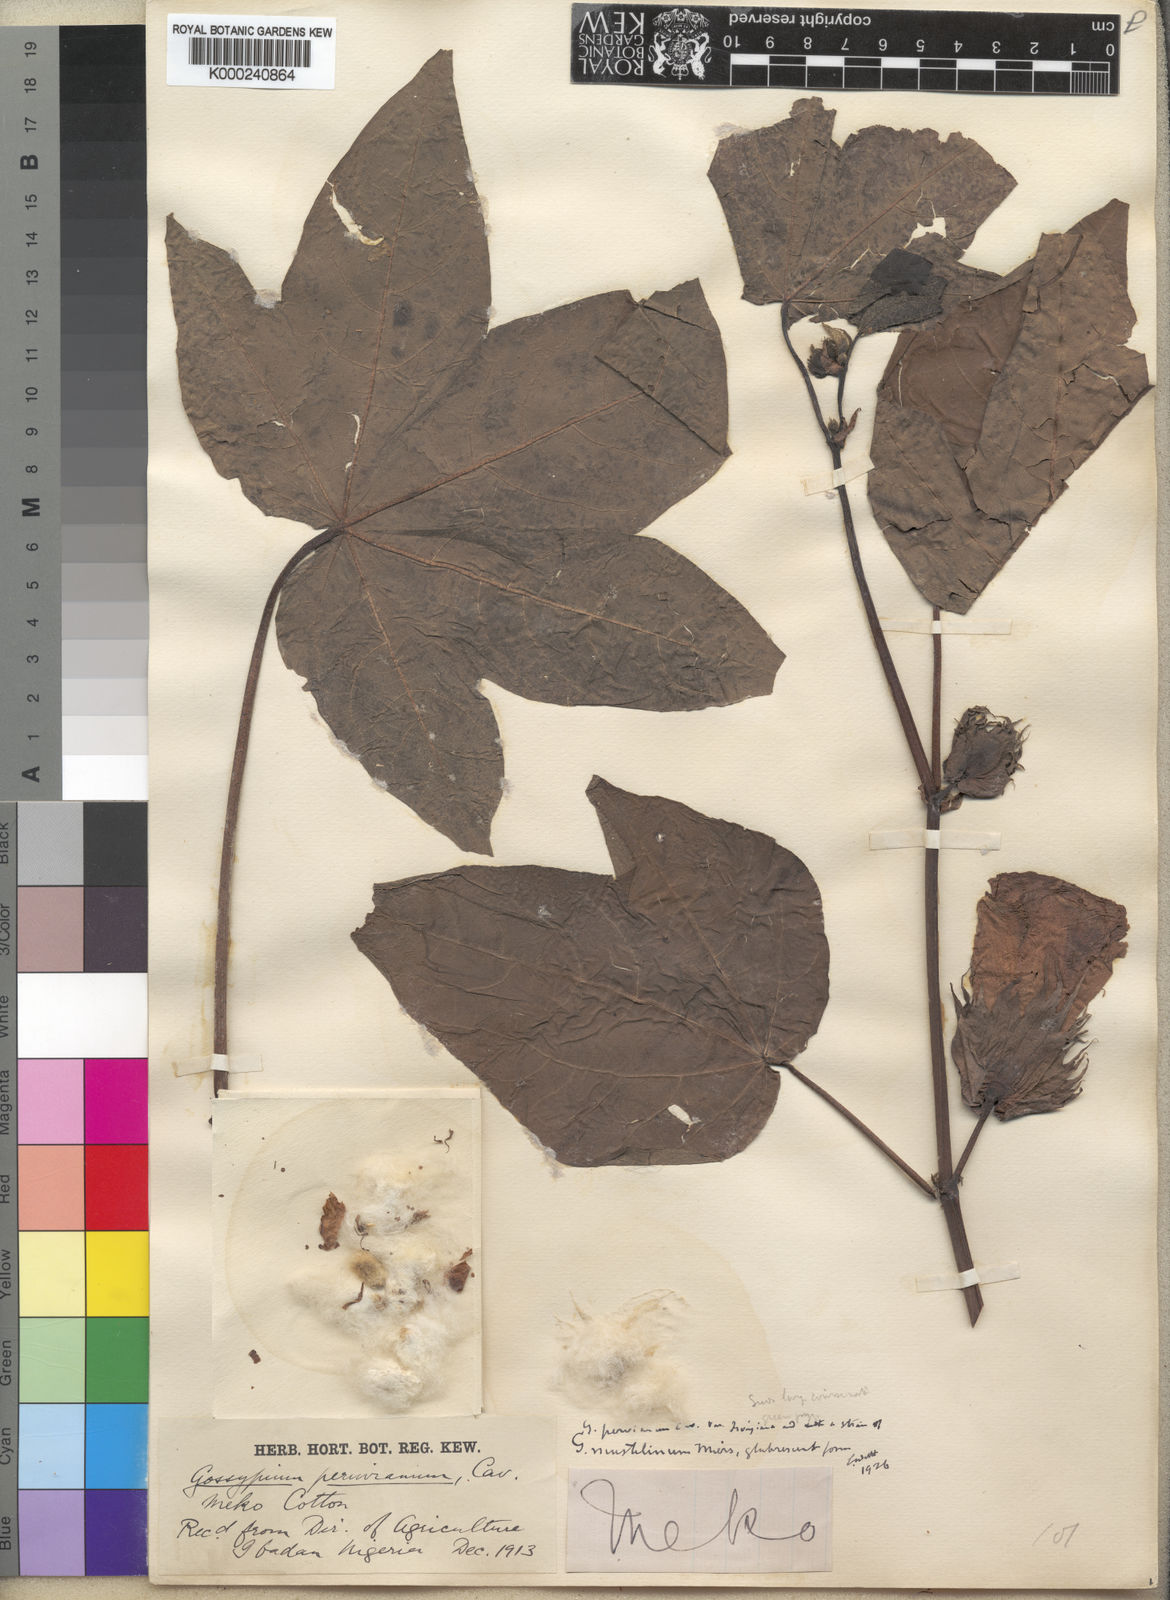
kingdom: Plantae
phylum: Tracheophyta
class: Magnoliopsida
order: Malvales
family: Malvaceae
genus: Gossypium
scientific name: Gossypium
